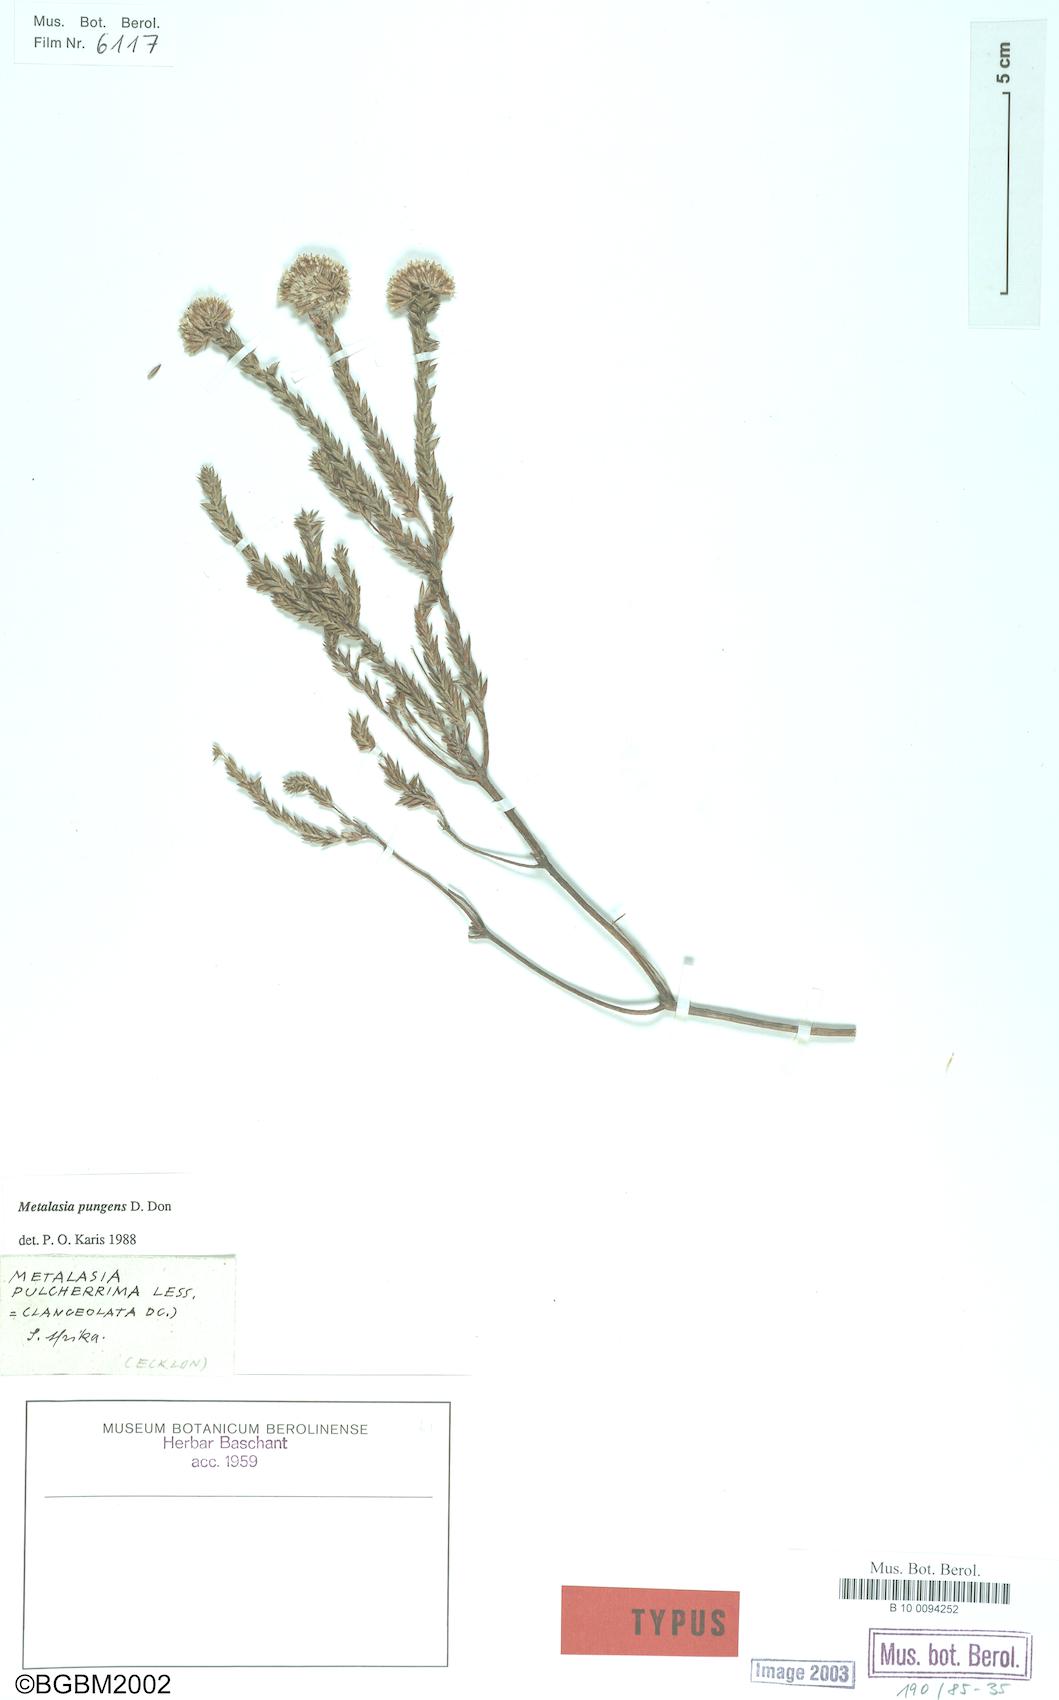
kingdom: Plantae
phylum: Tracheophyta
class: Magnoliopsida
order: Asterales
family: Asteraceae
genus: Metalasia
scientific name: Metalasia pungens
